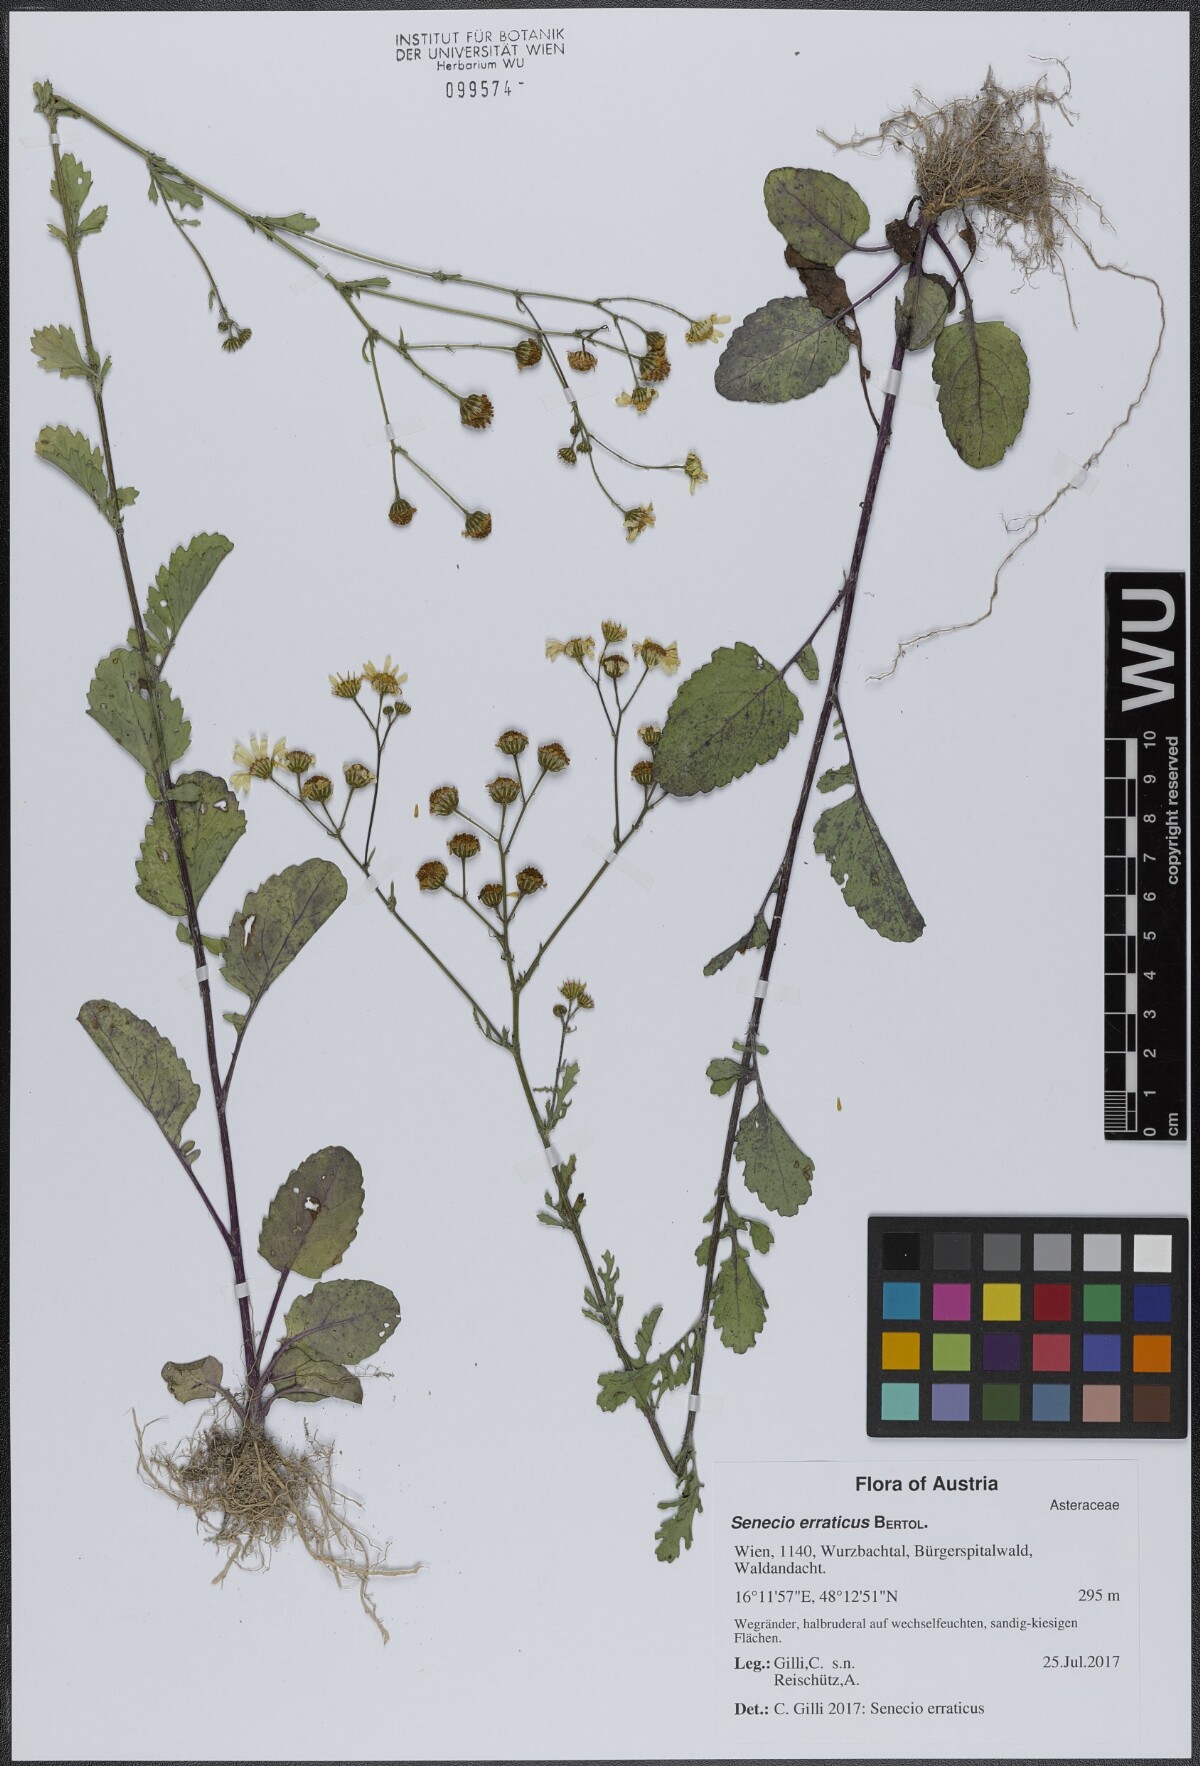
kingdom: Plantae
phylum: Tracheophyta
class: Magnoliopsida
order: Asterales
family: Asteraceae
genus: Jacobaea
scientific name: Jacobaea erratica
